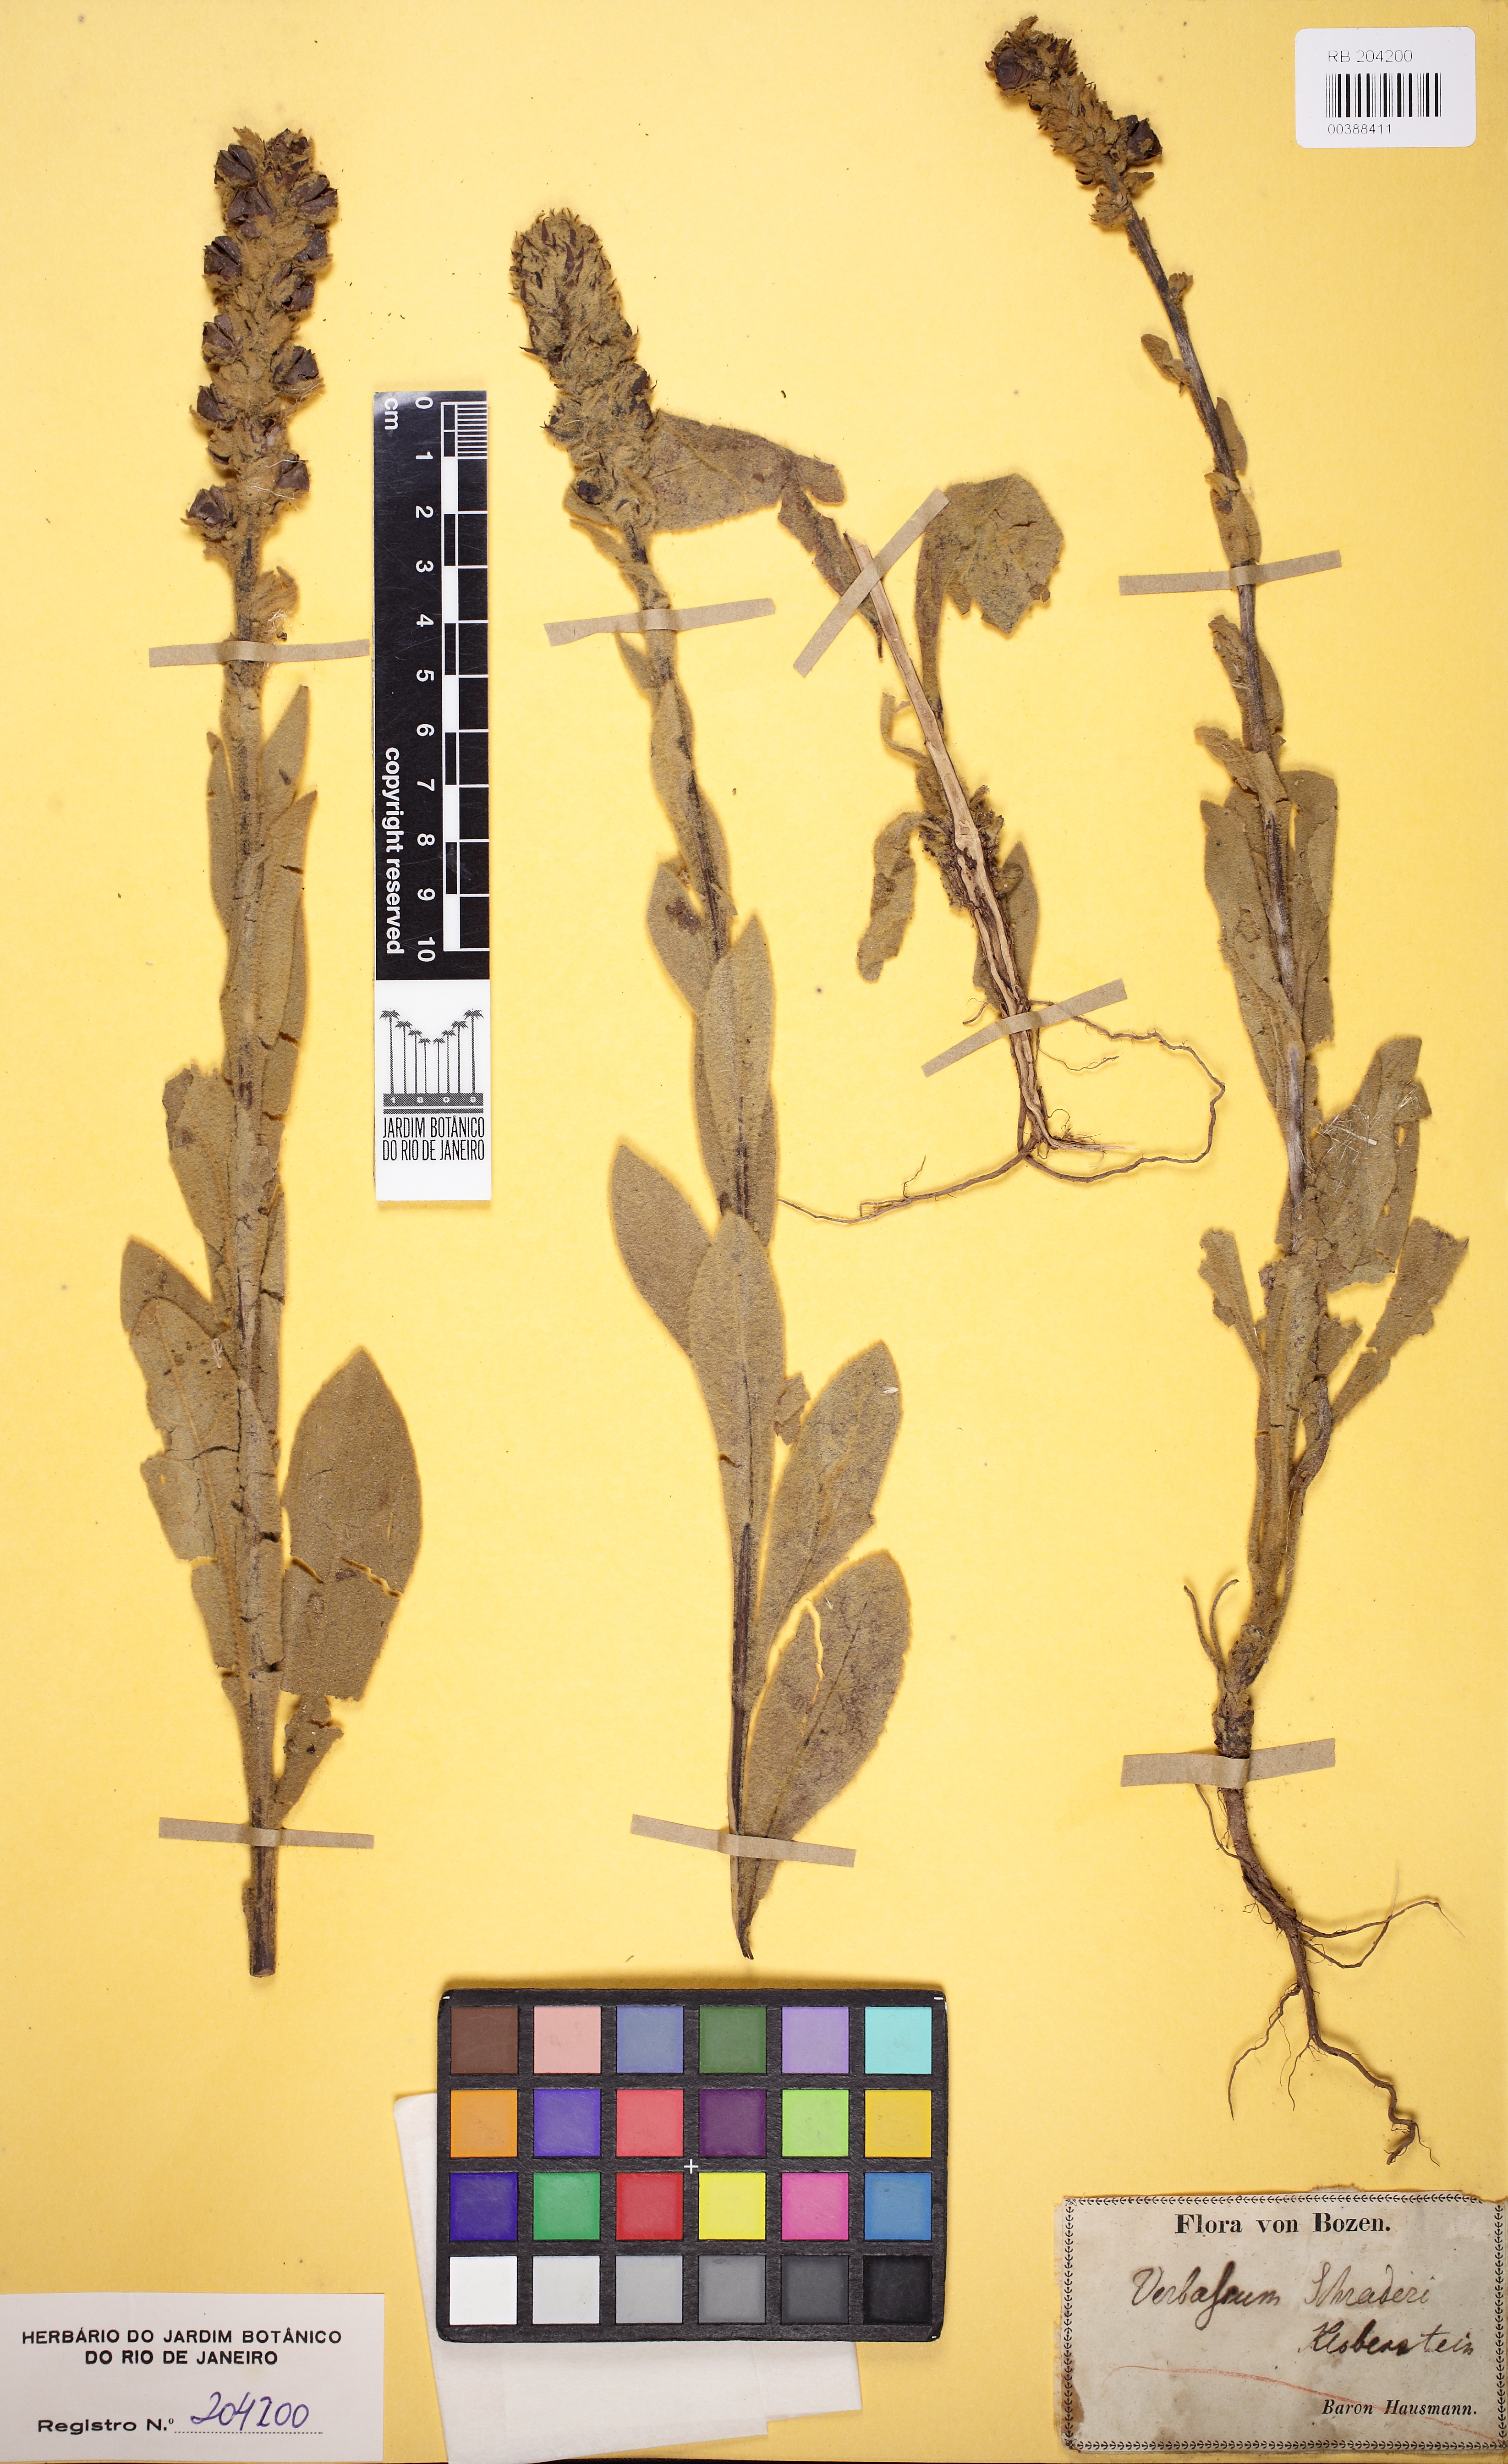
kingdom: Plantae
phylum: Tracheophyta
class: Magnoliopsida
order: Lamiales
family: Scrophulariaceae
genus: Verbascum
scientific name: Verbascum
